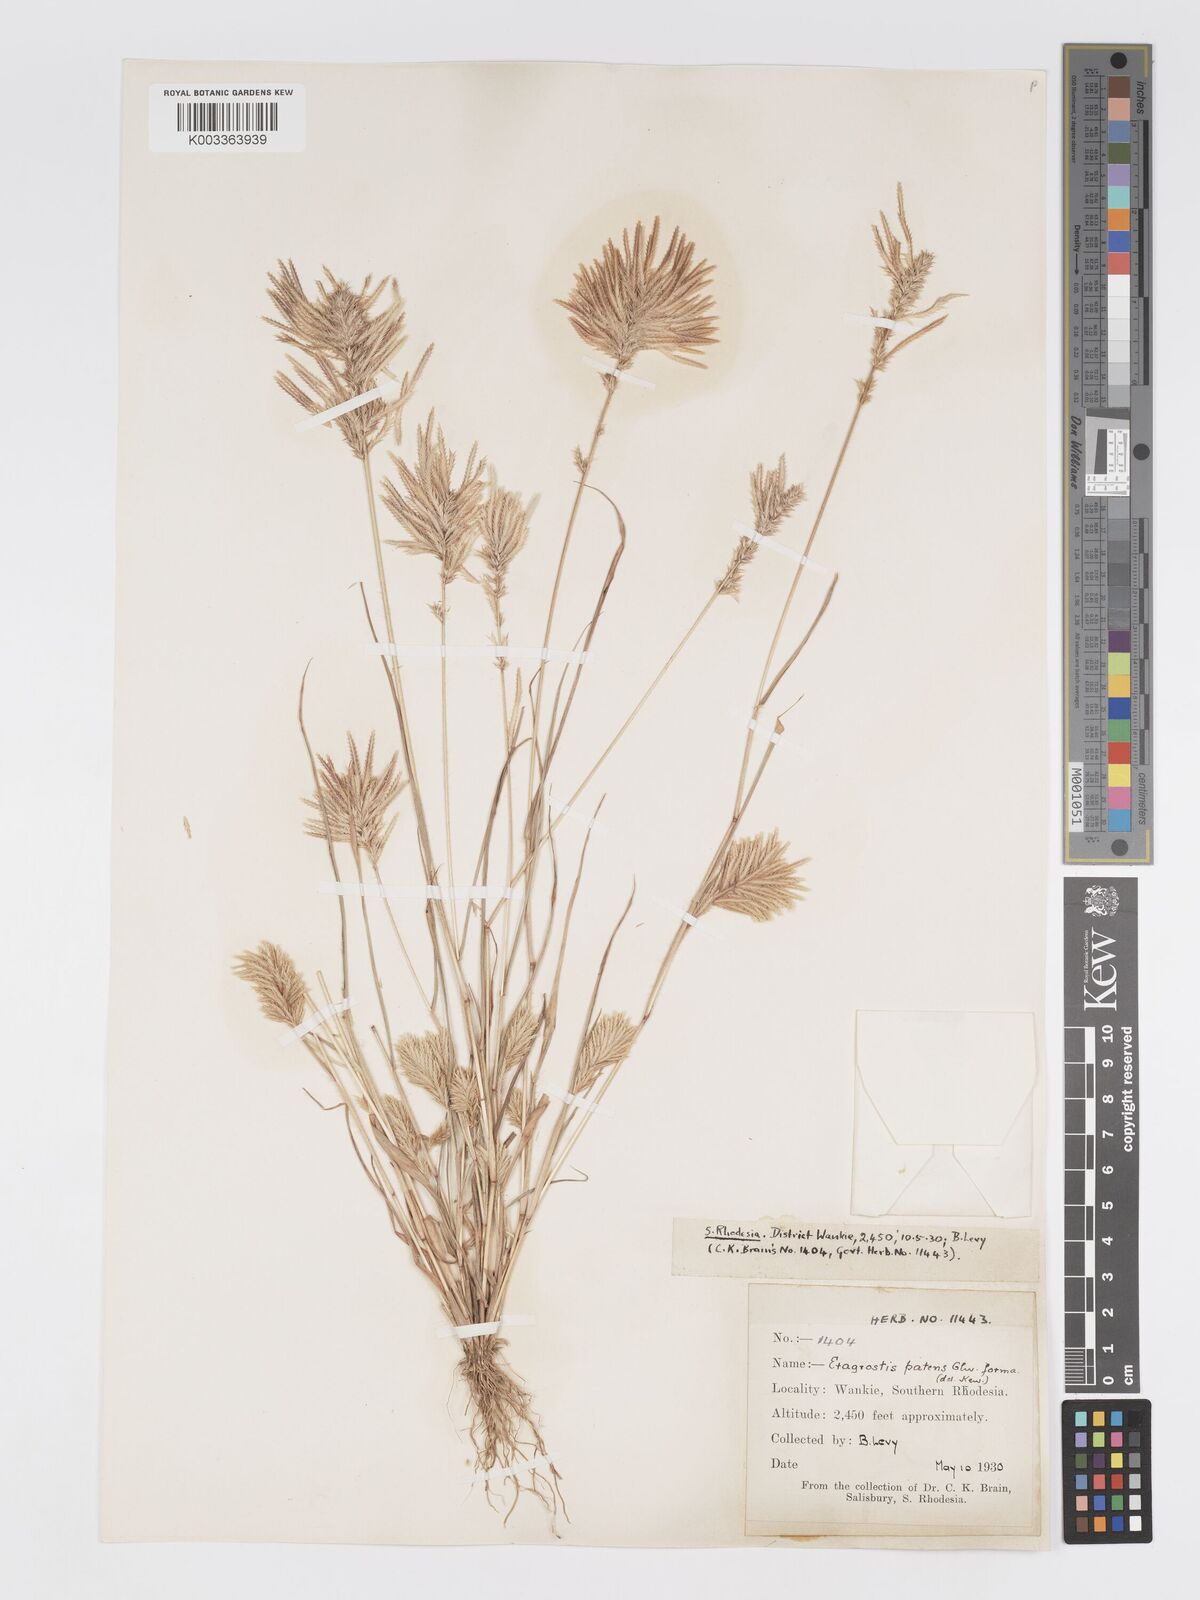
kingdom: Plantae
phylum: Tracheophyta
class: Liliopsida
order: Poales
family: Poaceae
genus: Eragrostis
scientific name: Eragrostis patens
